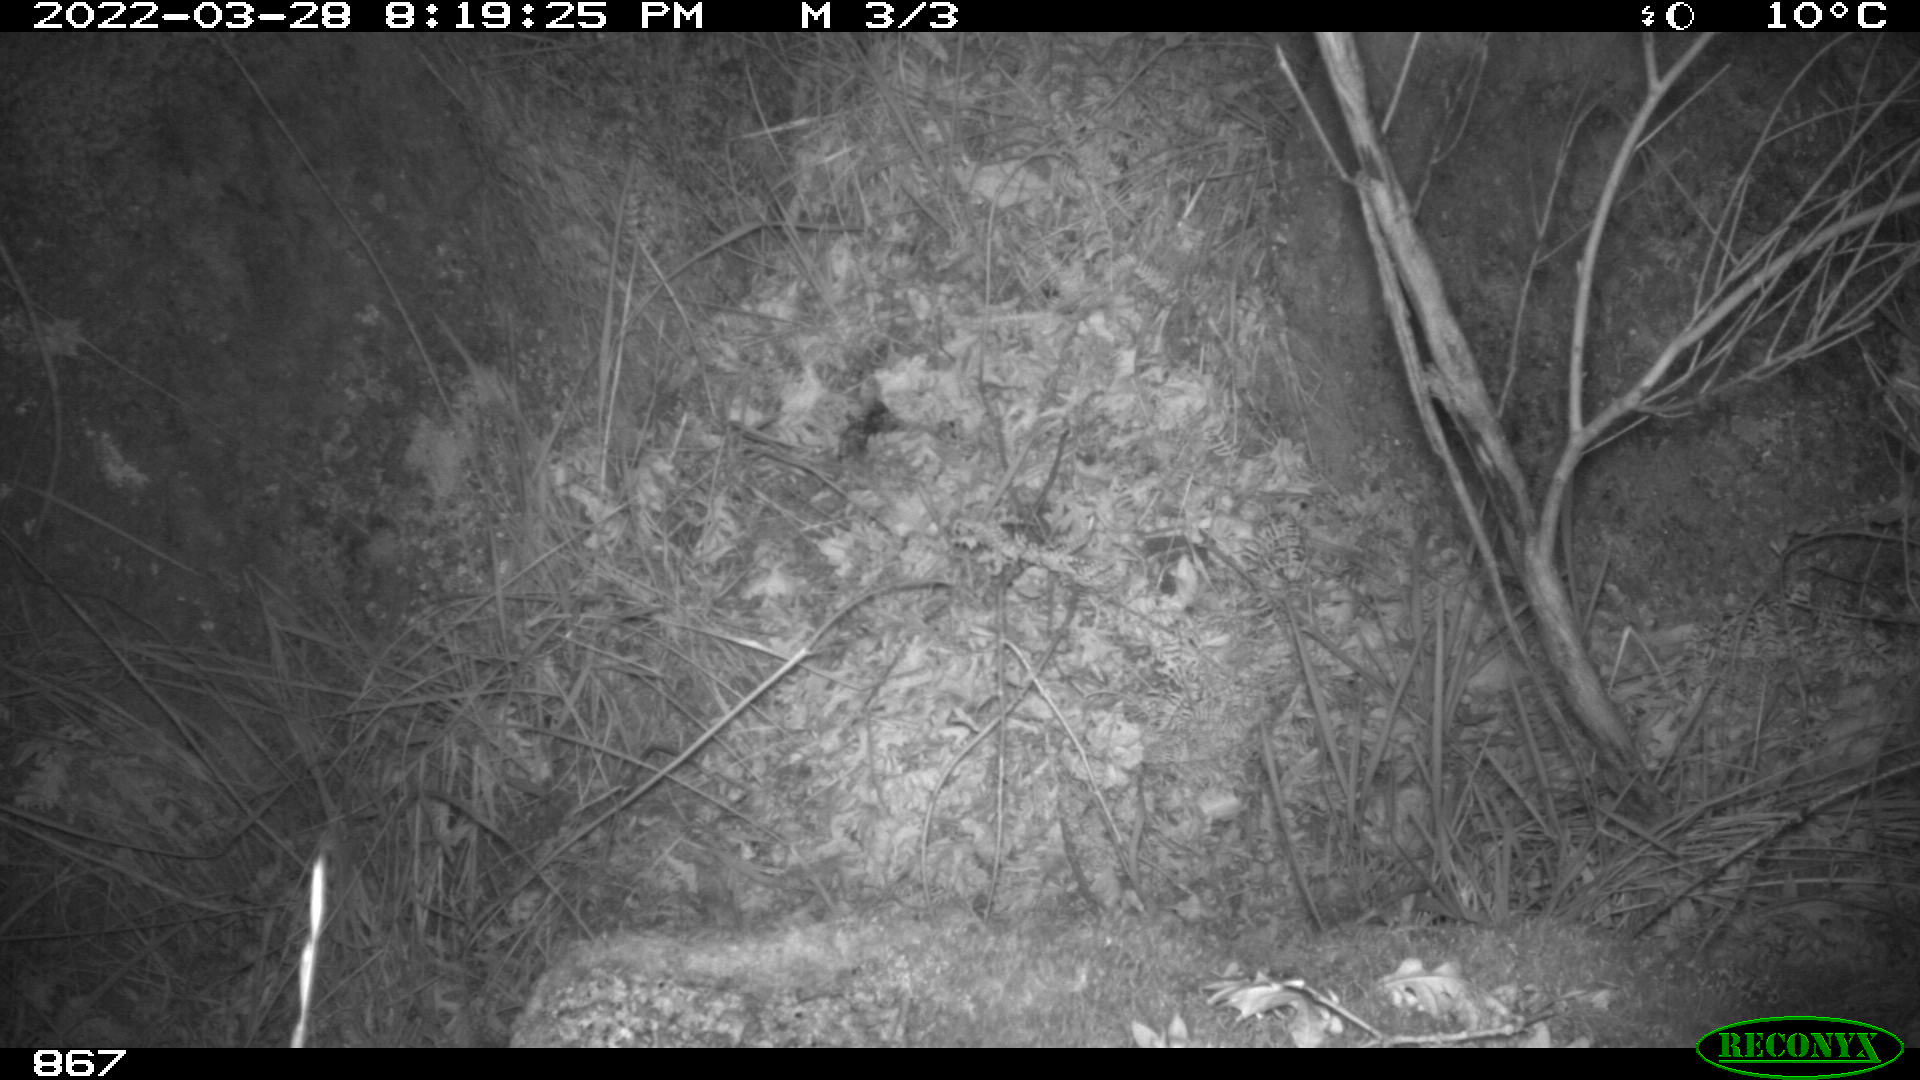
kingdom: Animalia
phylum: Chordata
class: Mammalia
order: Carnivora
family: Viverridae
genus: Genetta
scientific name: Genetta genetta
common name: Common genet
